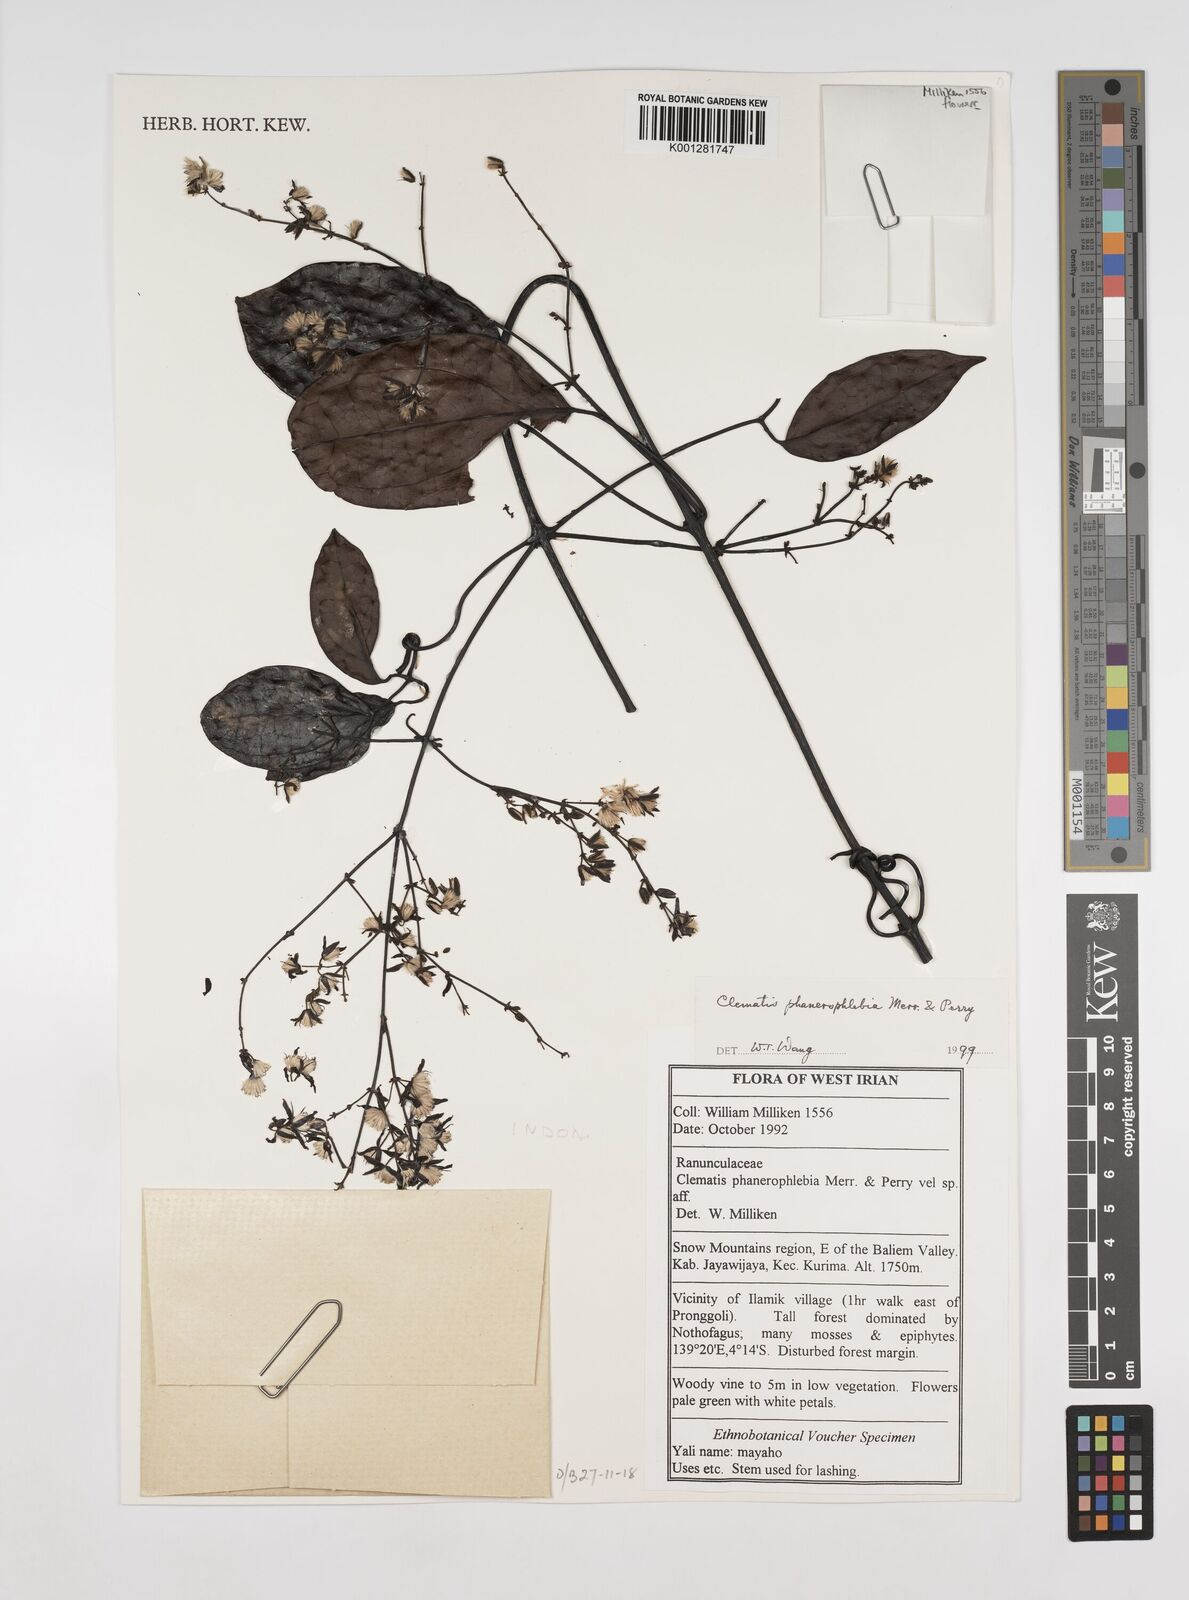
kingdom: Plantae
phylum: Tracheophyta
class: Magnoliopsida
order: Ranunculales
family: Ranunculaceae
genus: Clematis
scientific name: Clematis phanerophlebia
